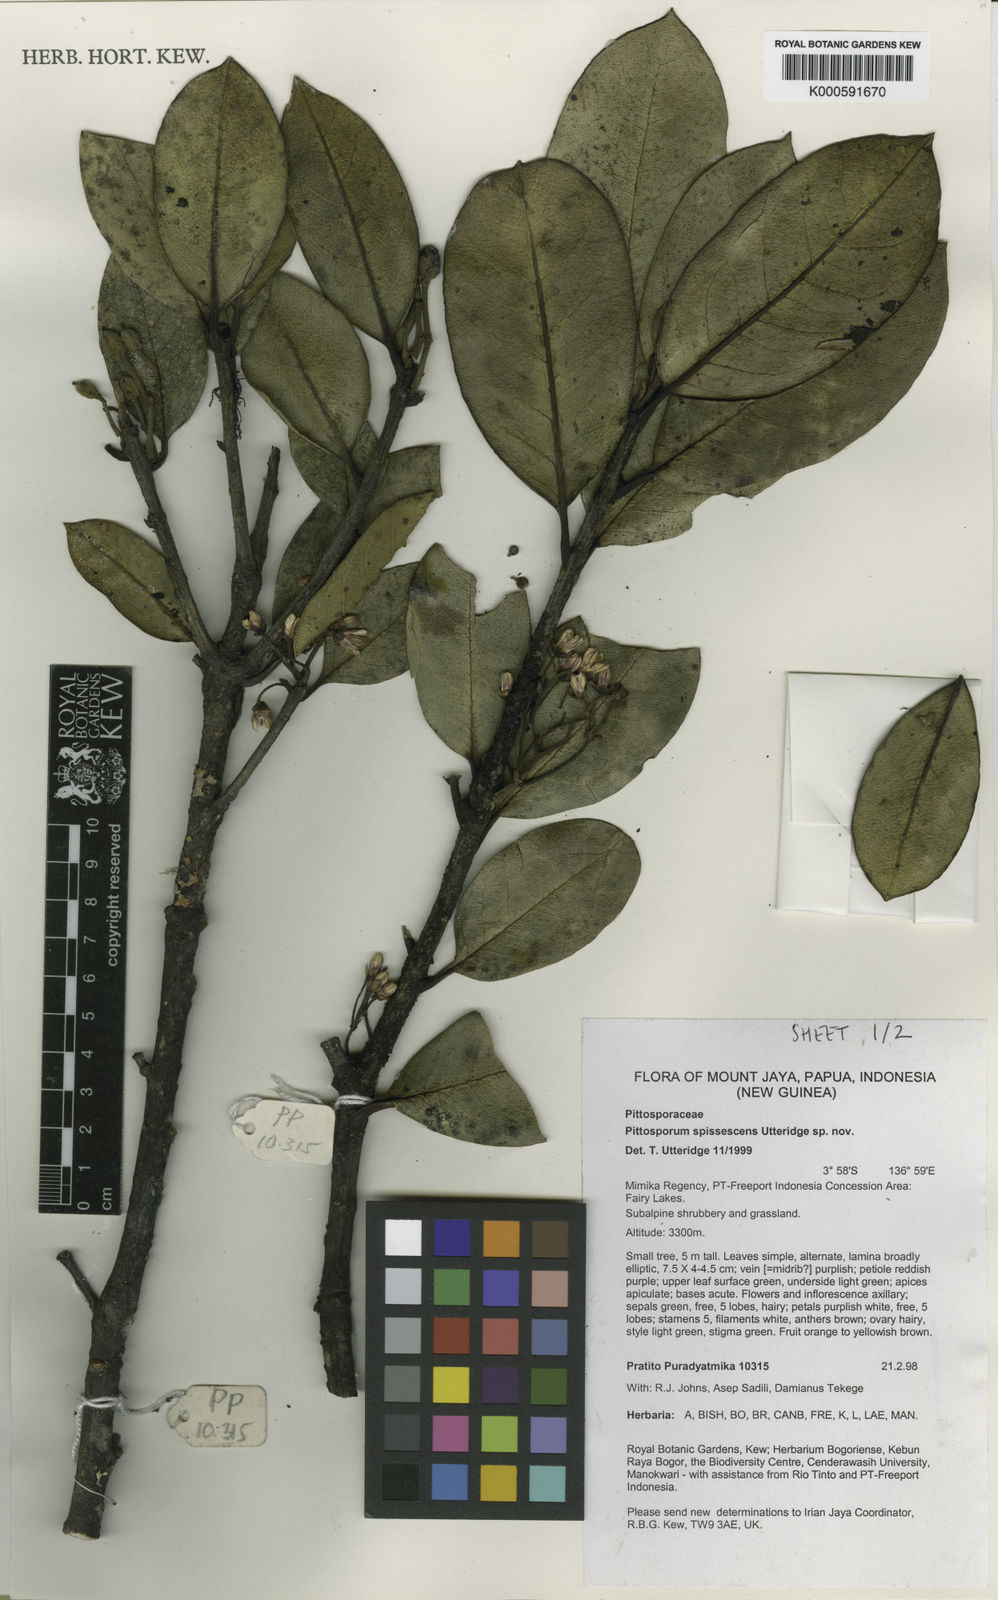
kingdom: Plantae
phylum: Tracheophyta
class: Magnoliopsida
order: Apiales
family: Pittosporaceae
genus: Pittosporum
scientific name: Pittosporum
